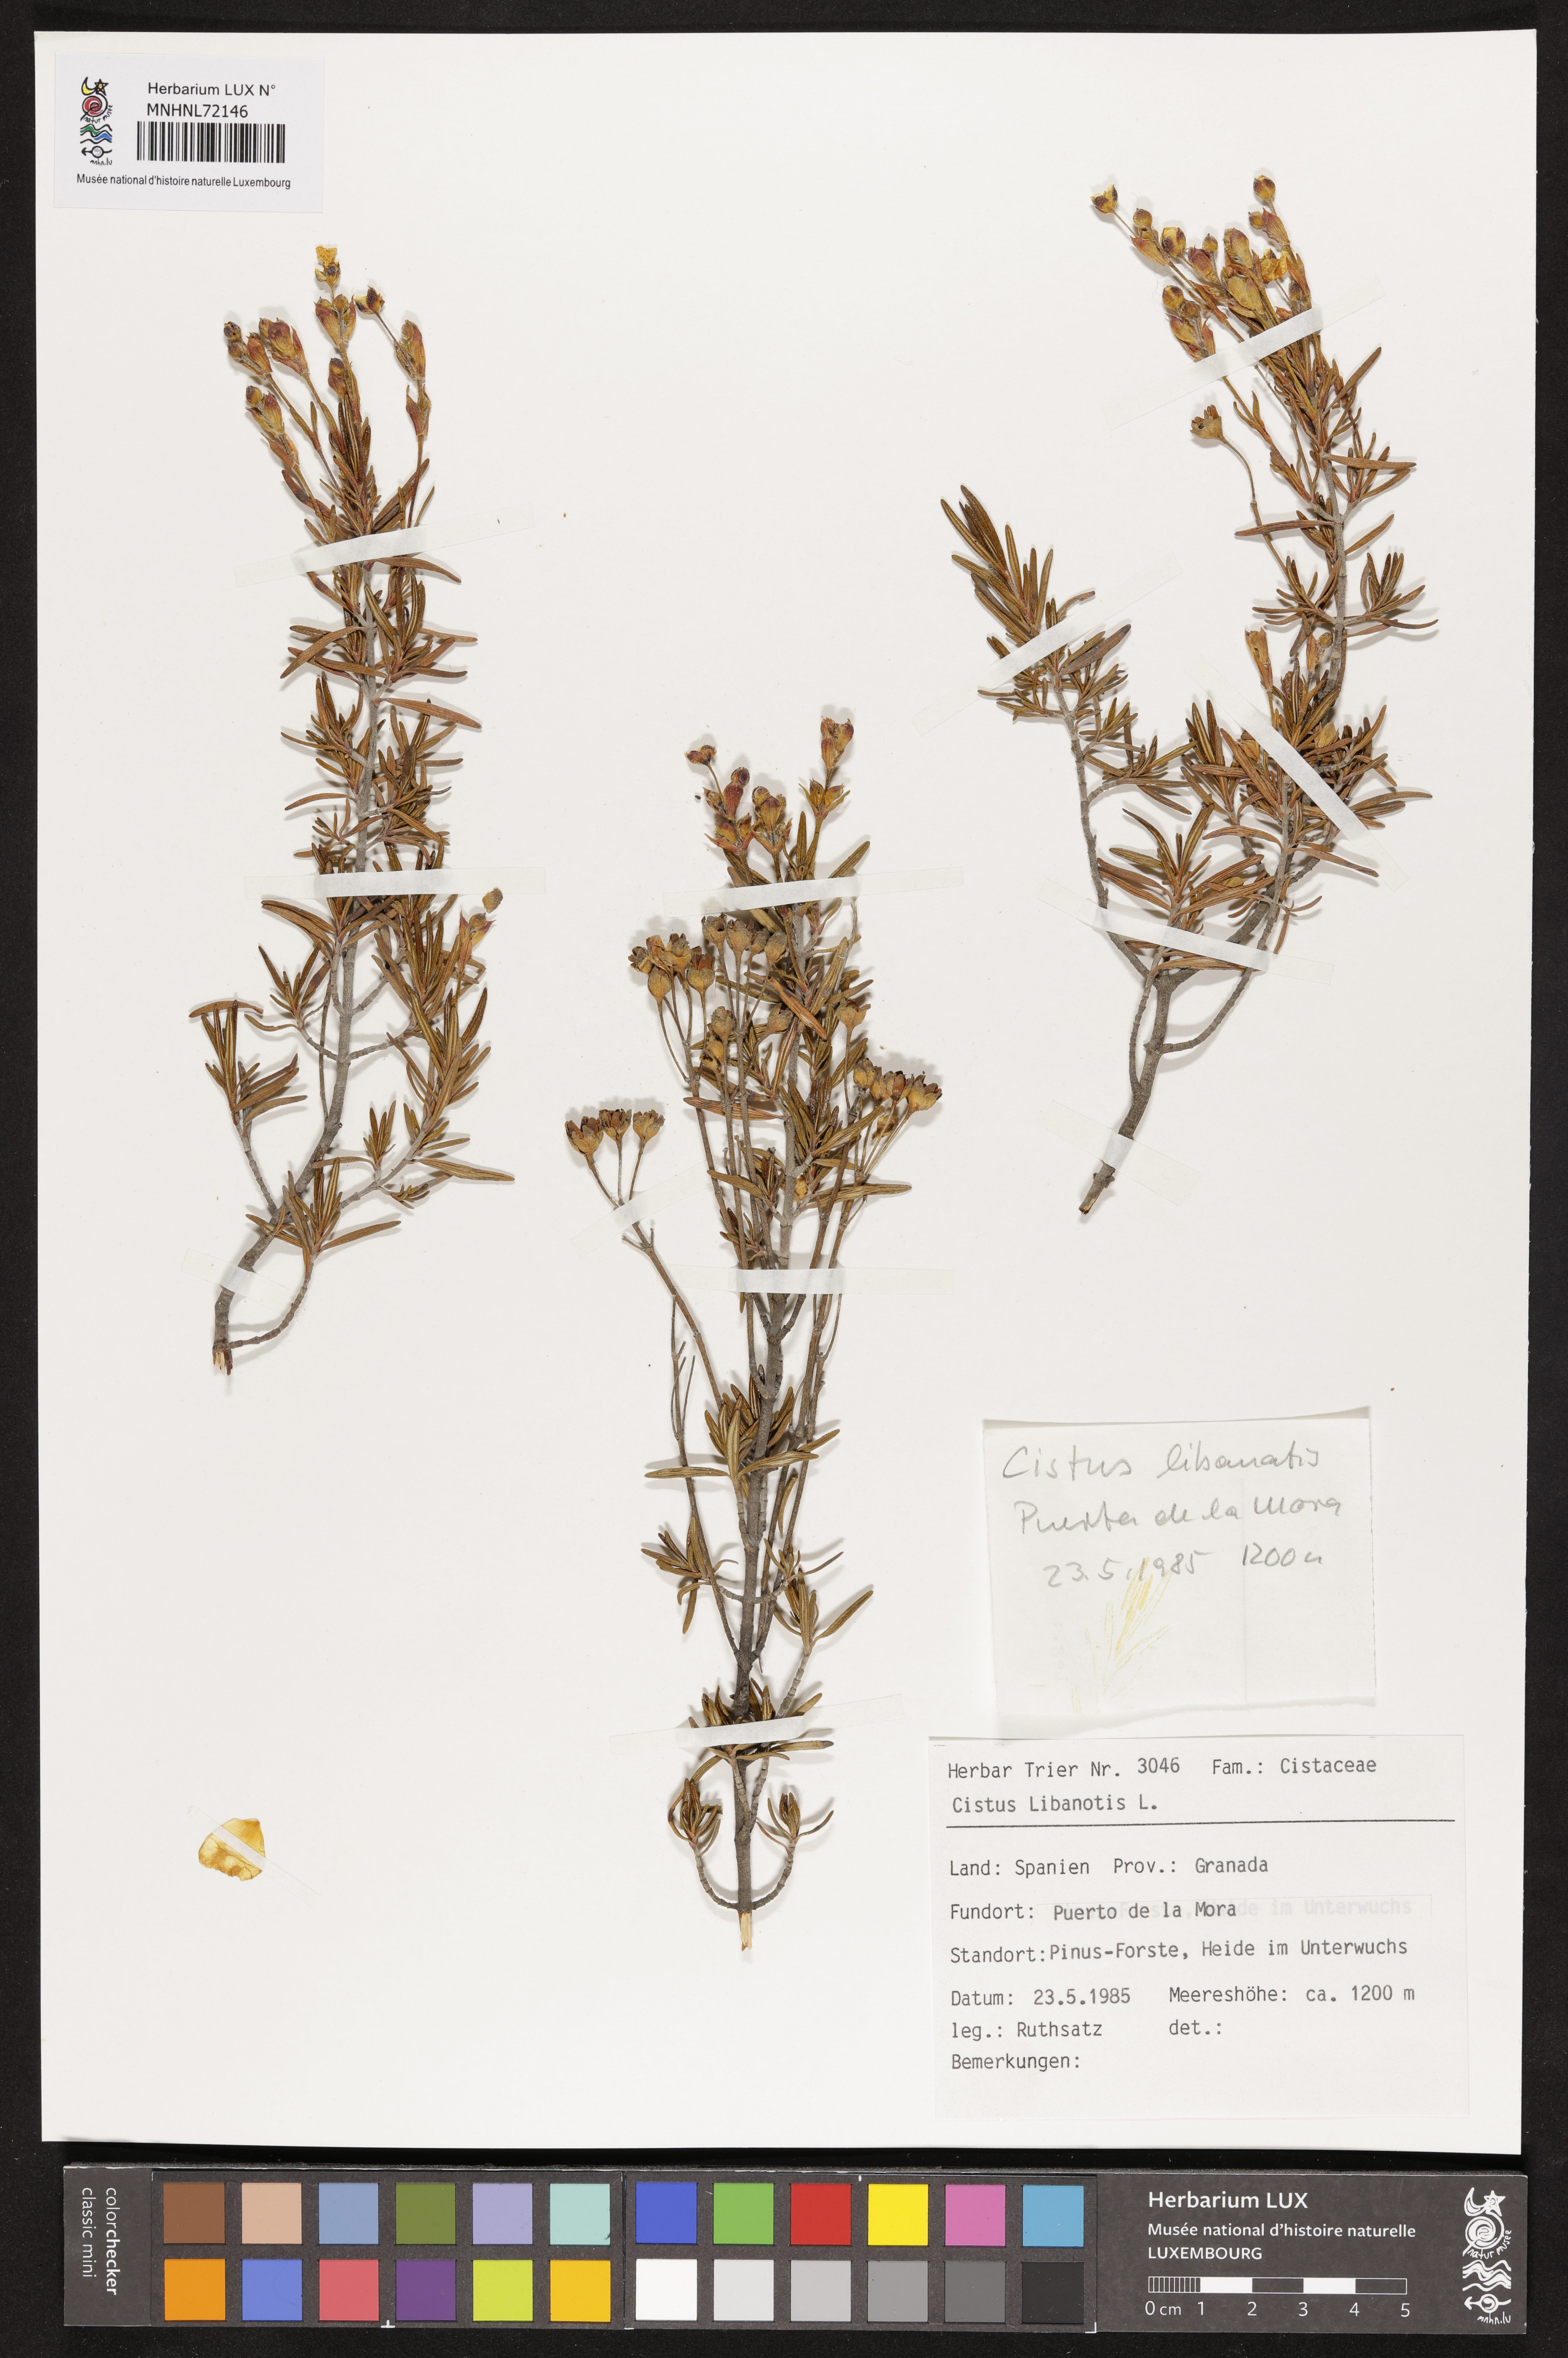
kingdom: Plantae
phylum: Tracheophyta
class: Magnoliopsida
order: Malvales
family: Cistaceae
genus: Cistus
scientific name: Cistus libanotis
